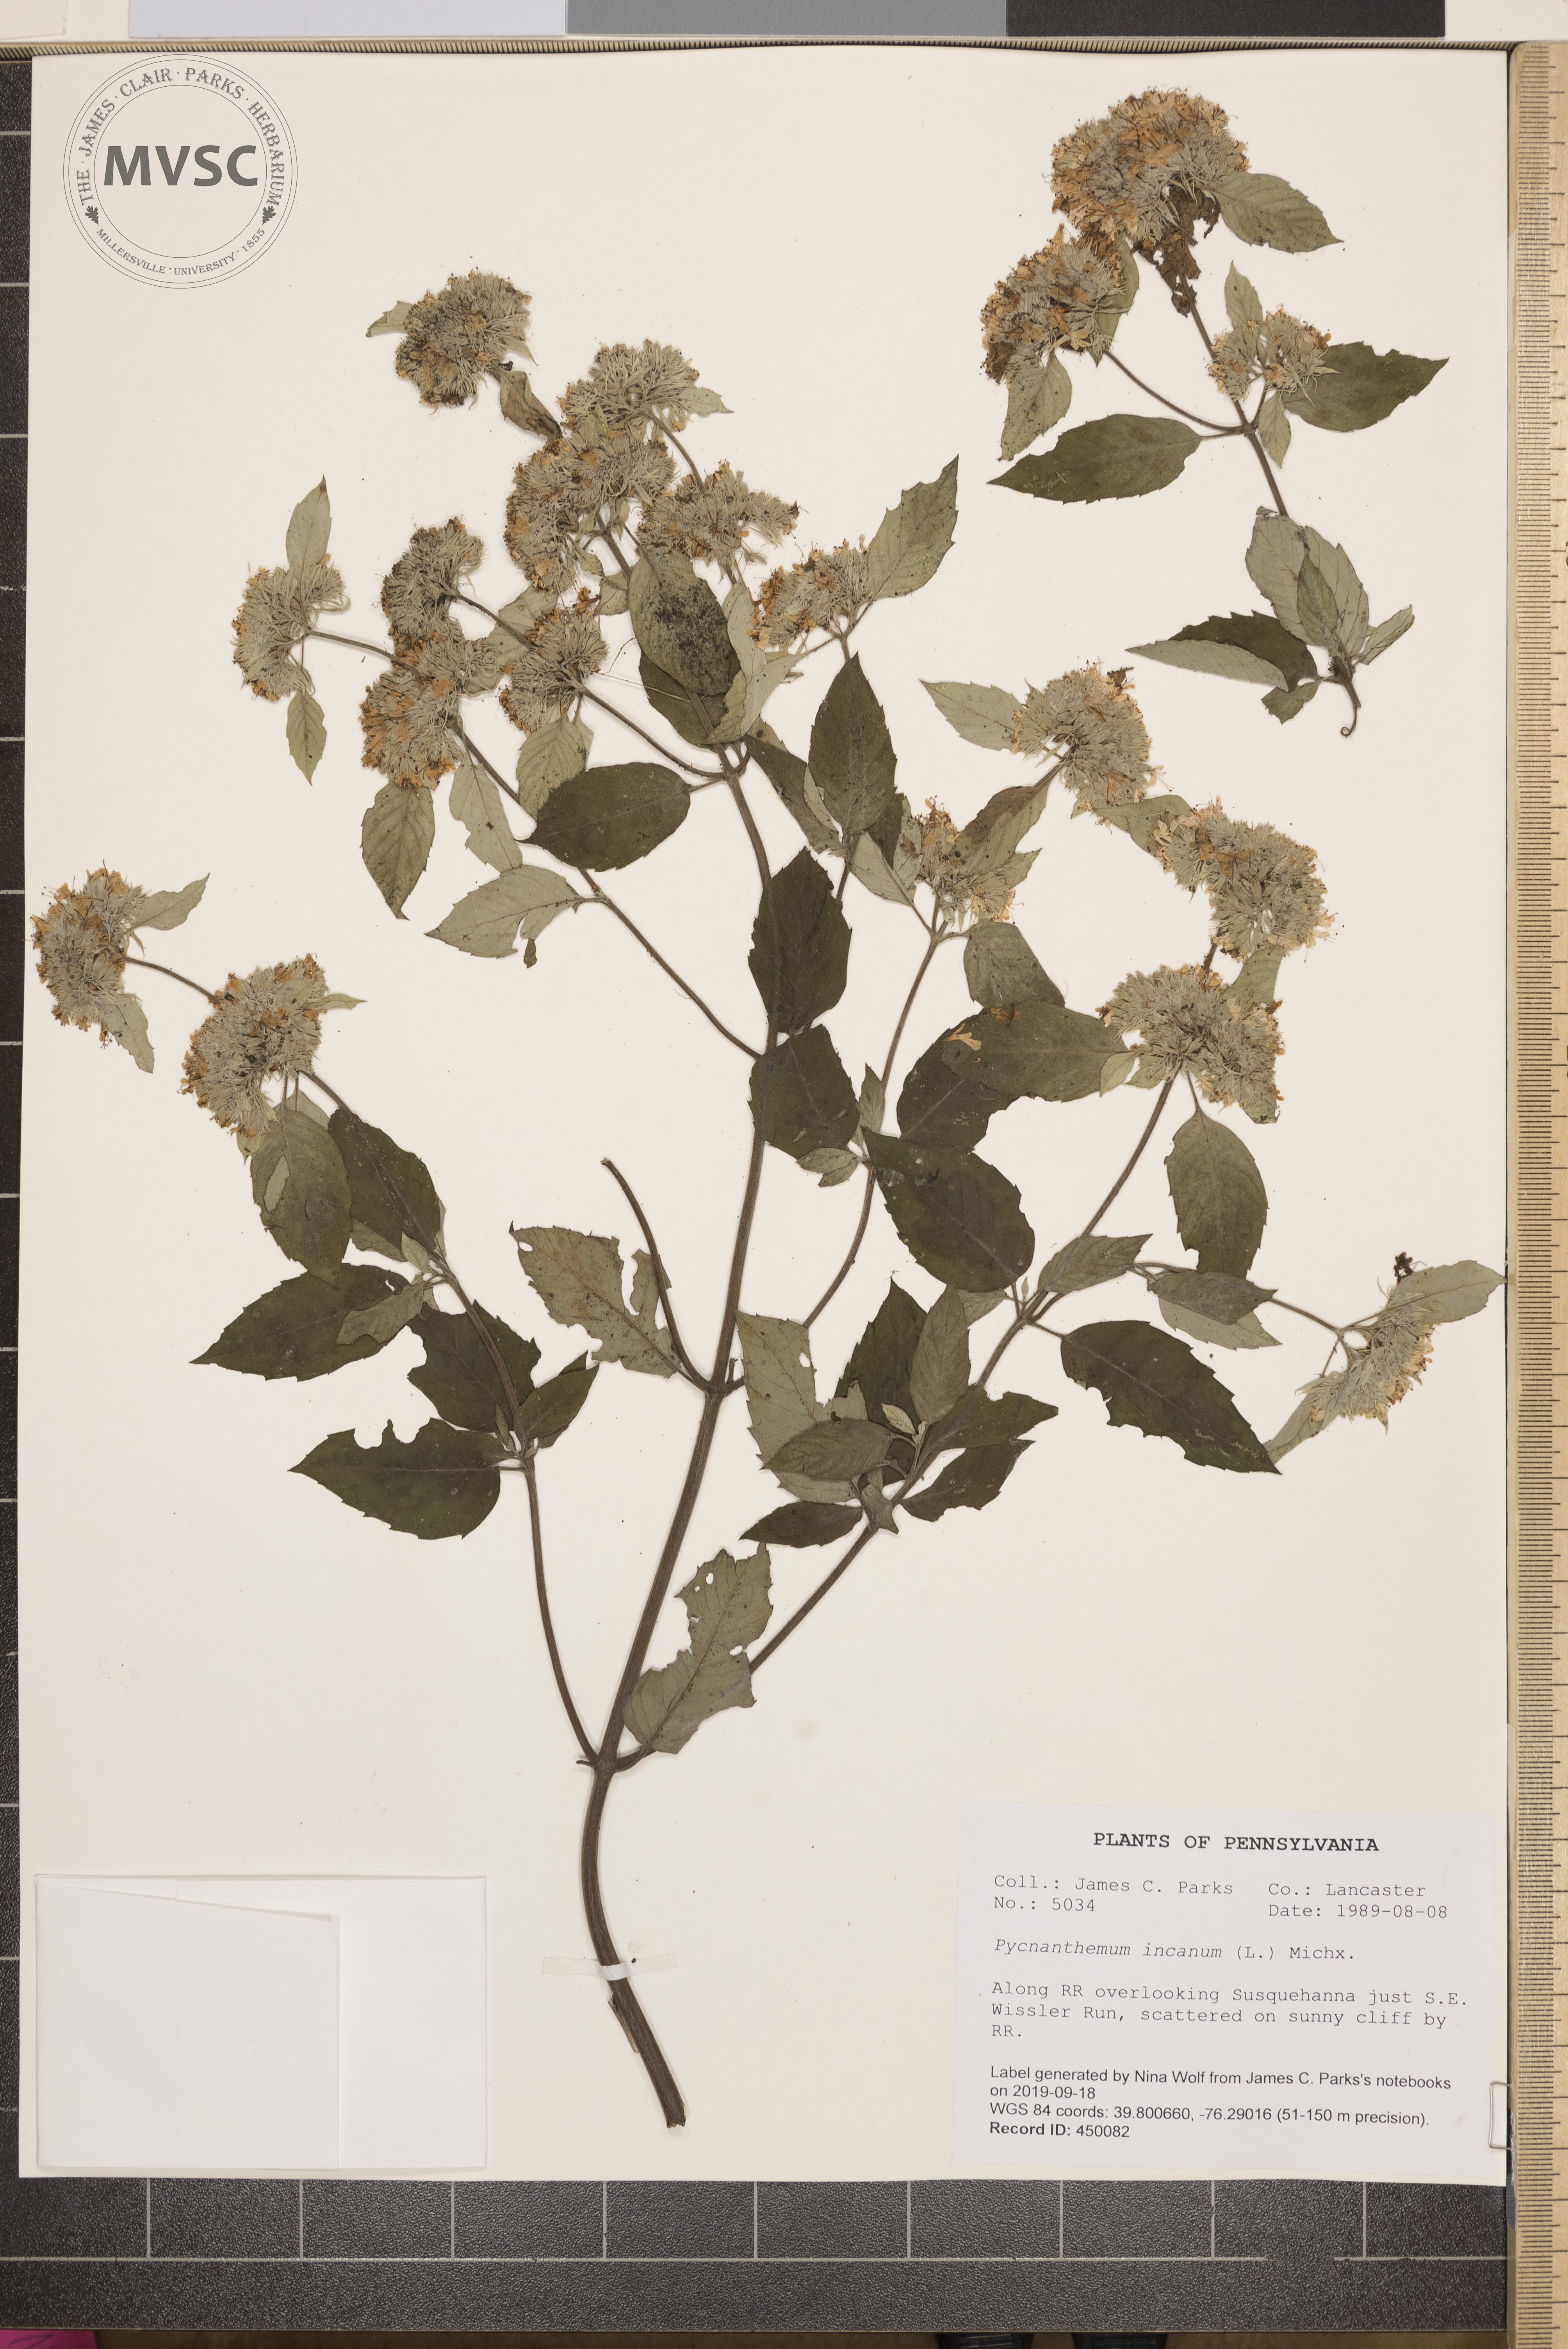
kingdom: Plantae
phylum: Tracheophyta
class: Magnoliopsida
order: Lamiales
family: Lamiaceae
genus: Pycnanthemum
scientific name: Pycnanthemum incanum
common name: Hoary mountain-mint
